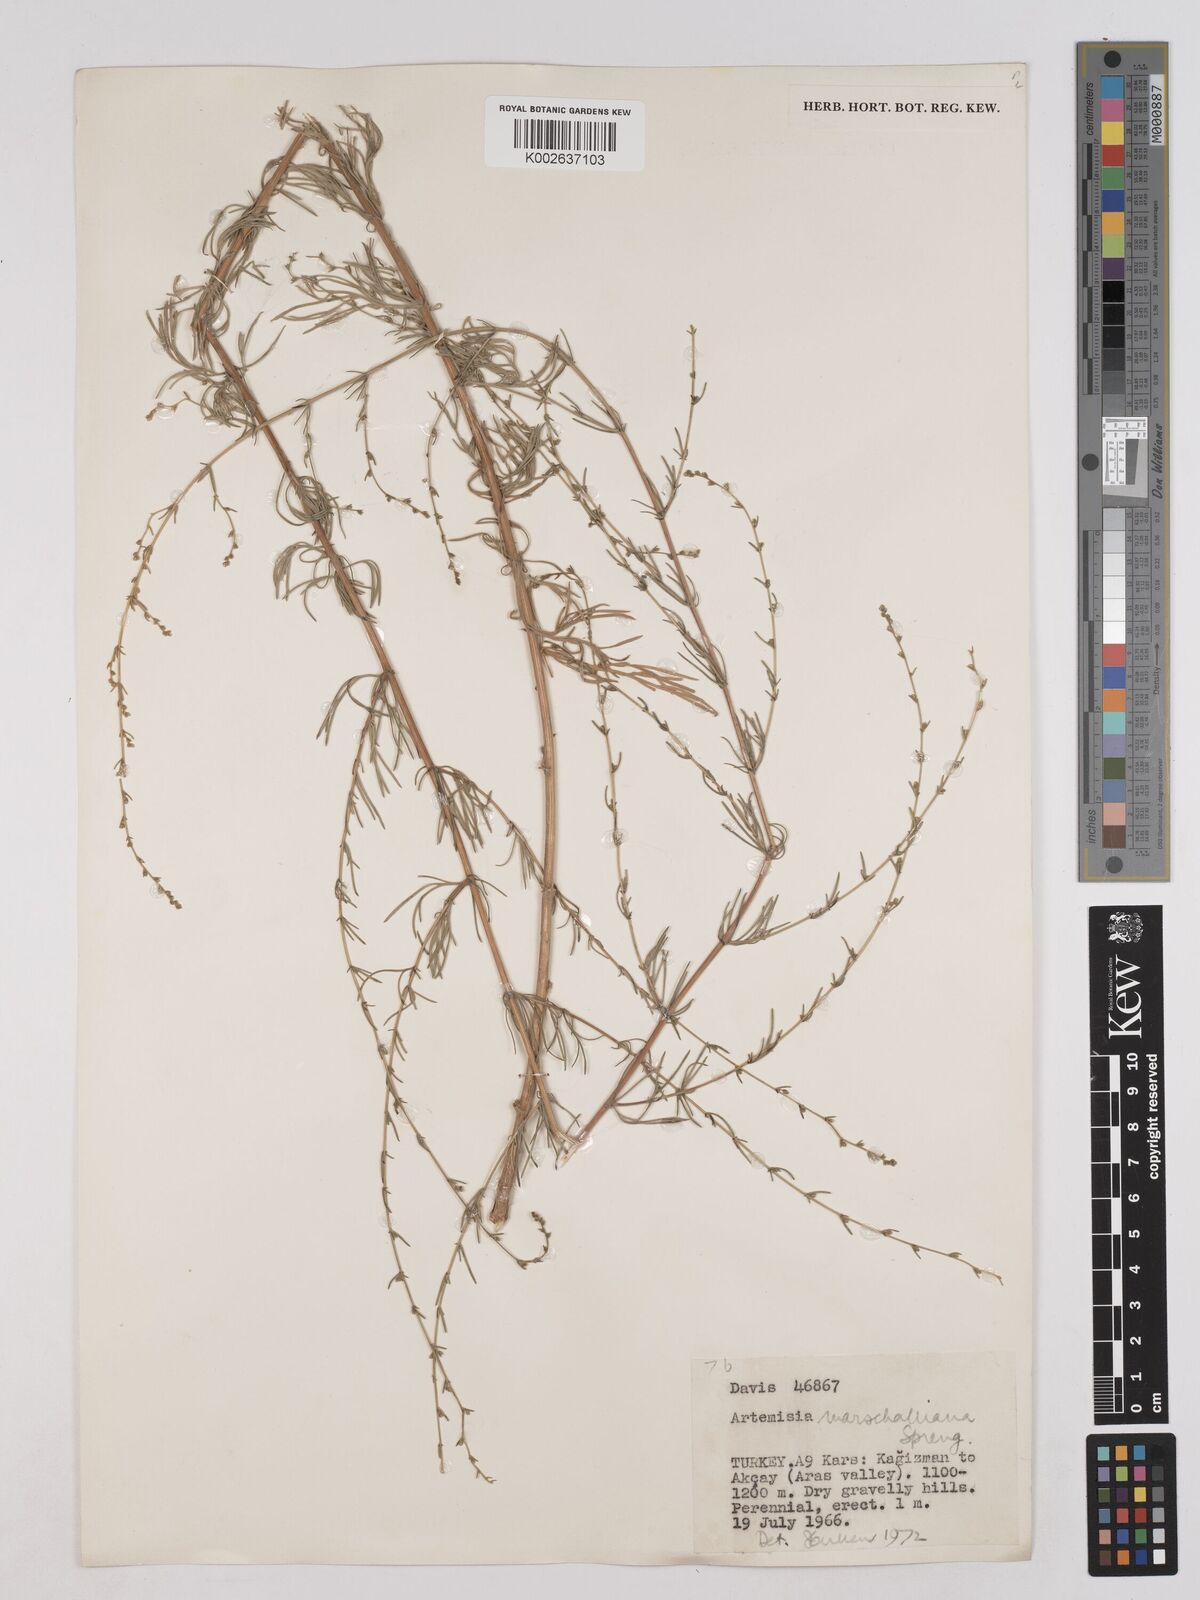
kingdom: Plantae
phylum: Tracheophyta
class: Magnoliopsida
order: Asterales
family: Asteraceae
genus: Artemisia
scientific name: Artemisia marschalliana
